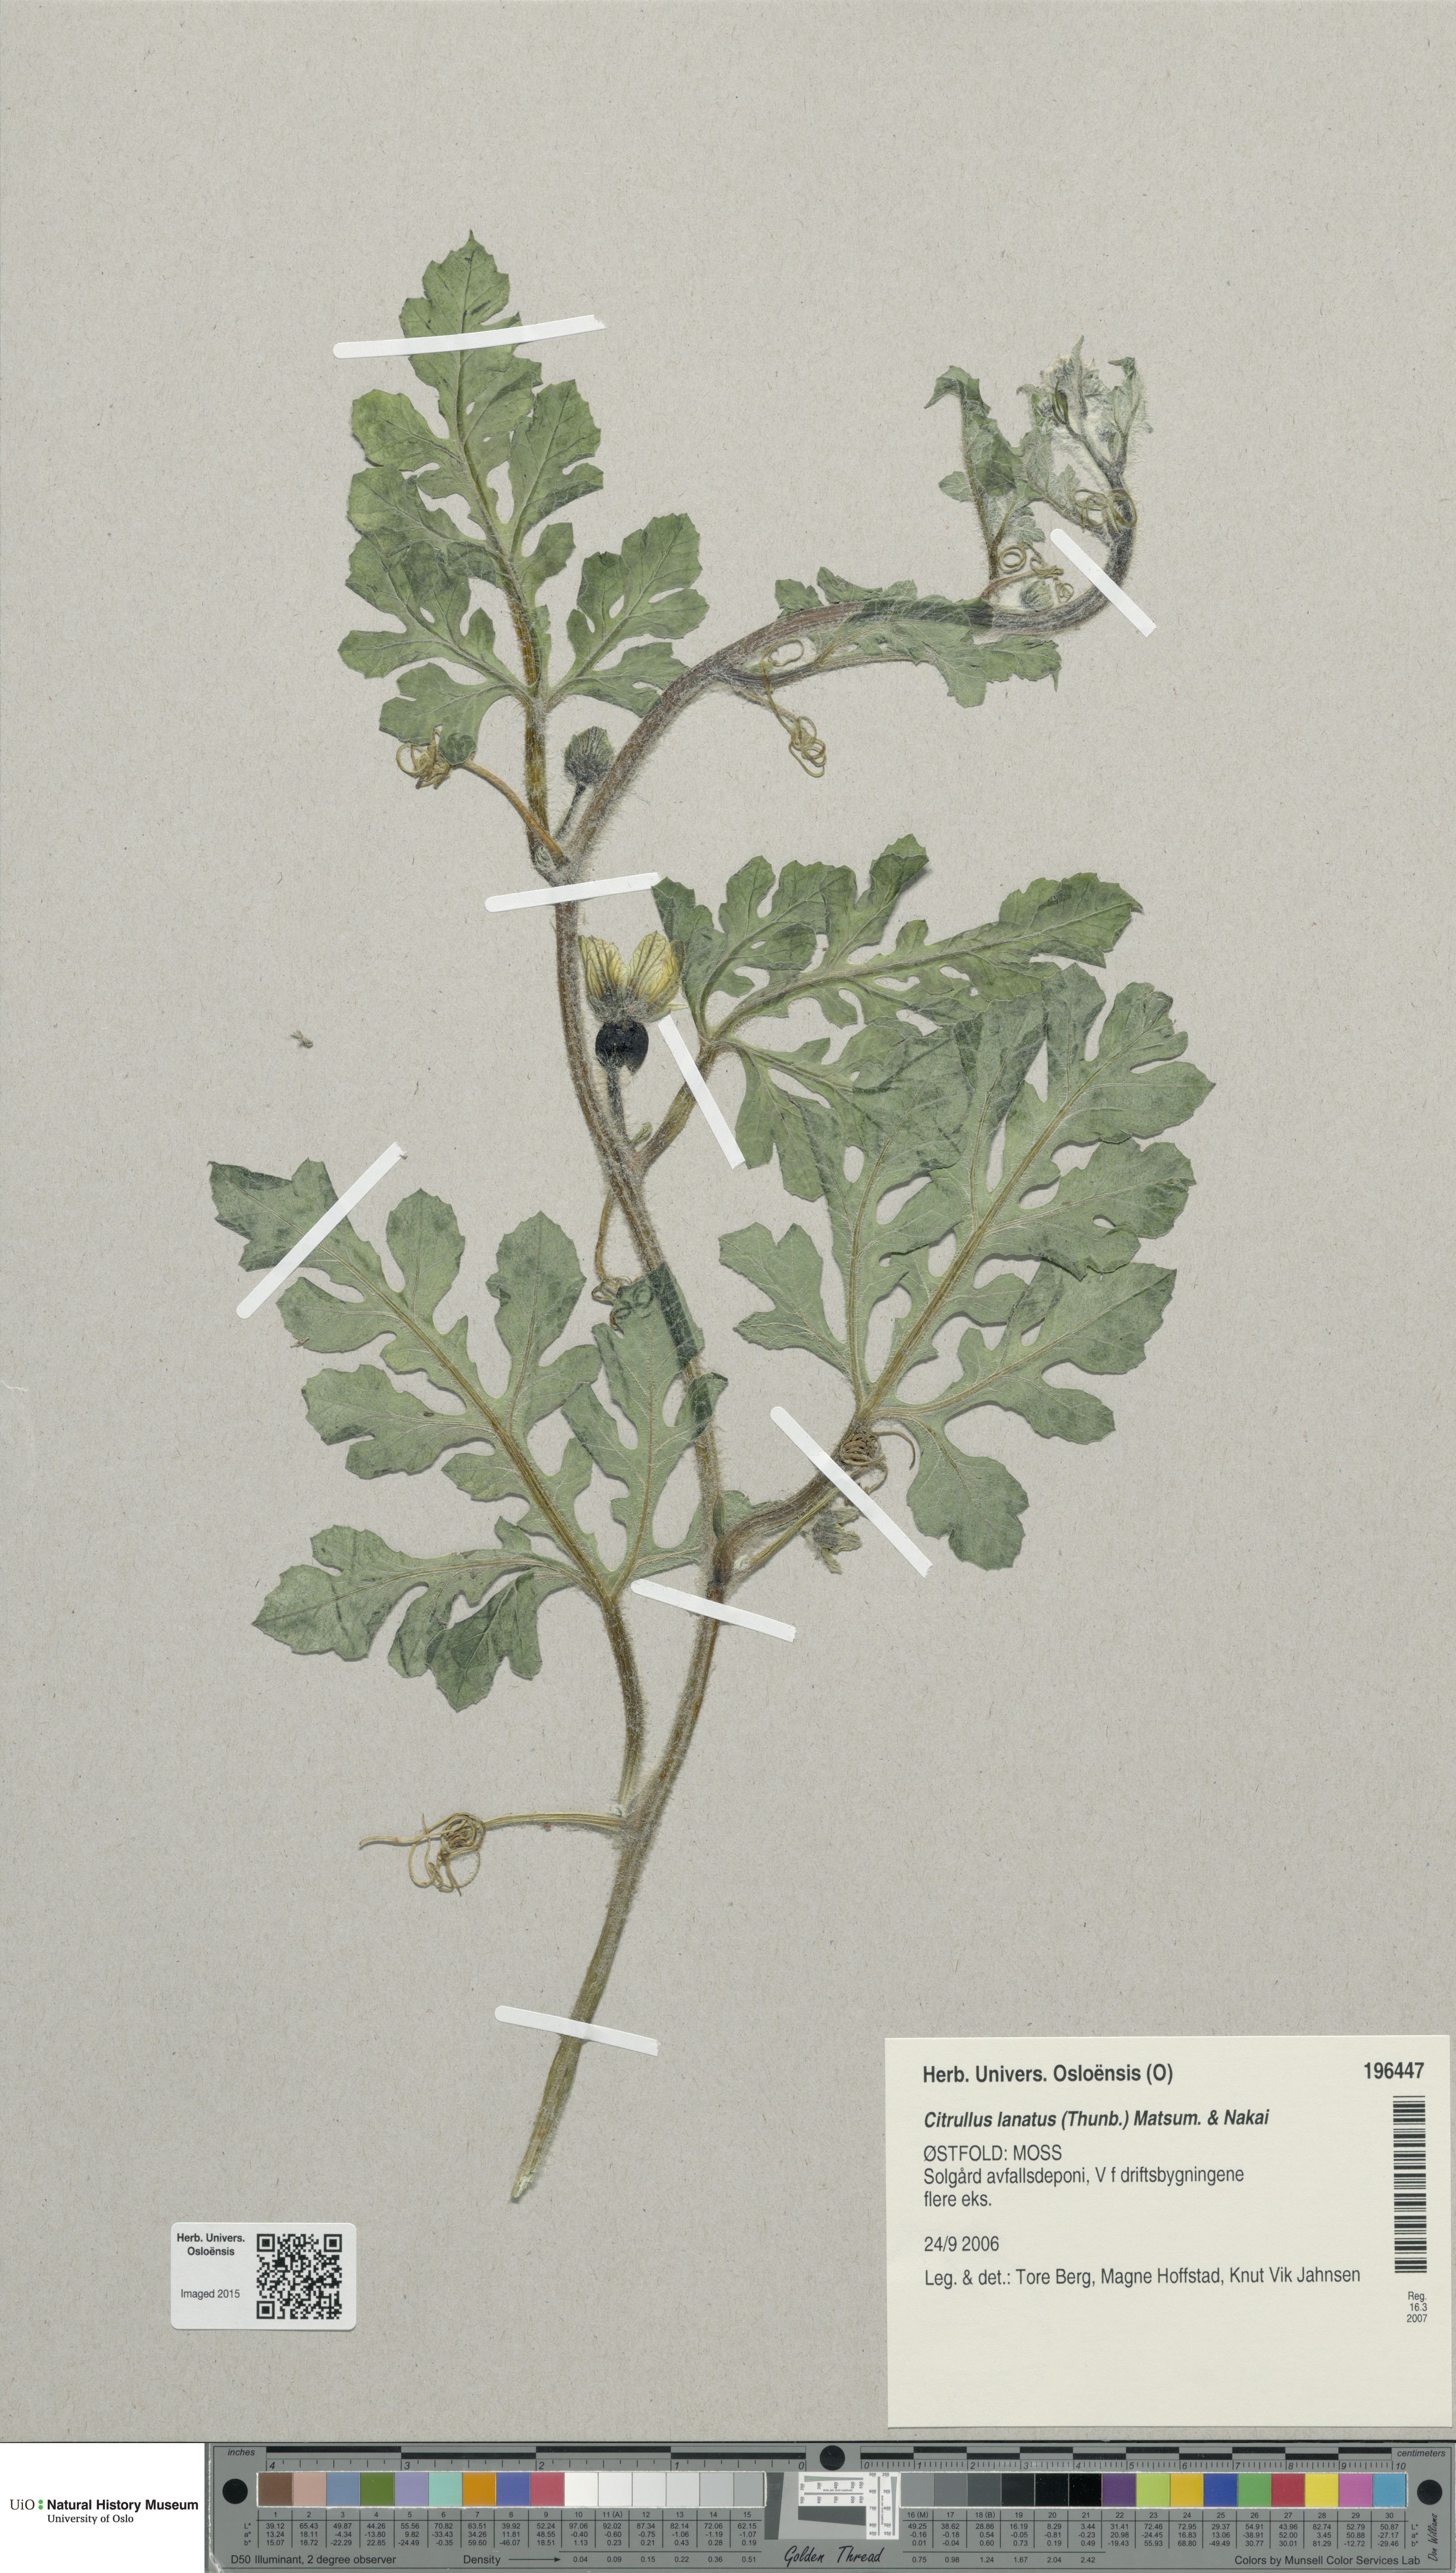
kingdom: Plantae
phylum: Tracheophyta
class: Magnoliopsida
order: Cucurbitales
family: Cucurbitaceae
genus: Citrullus
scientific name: Citrullus lanatus
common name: Watermelon
